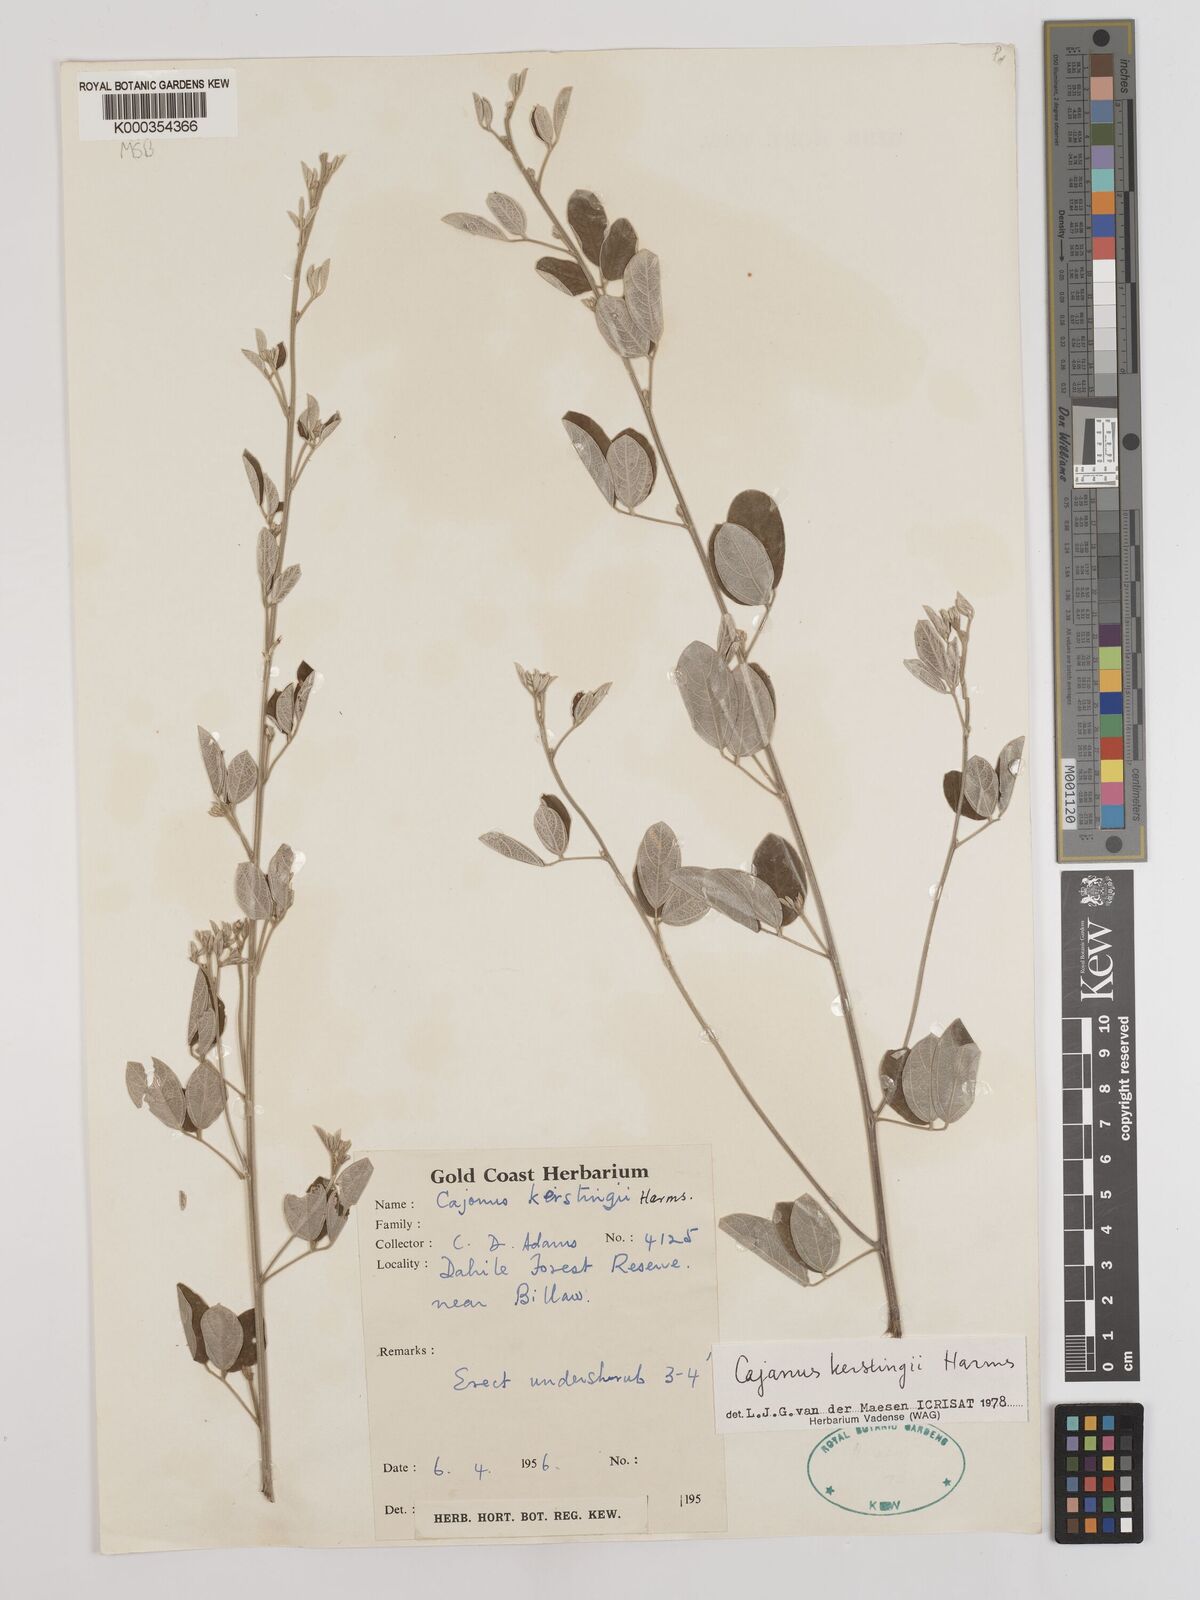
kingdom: Plantae
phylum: Tracheophyta
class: Magnoliopsida
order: Fabales
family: Fabaceae
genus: Cajanus
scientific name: Cajanus kerstingii
